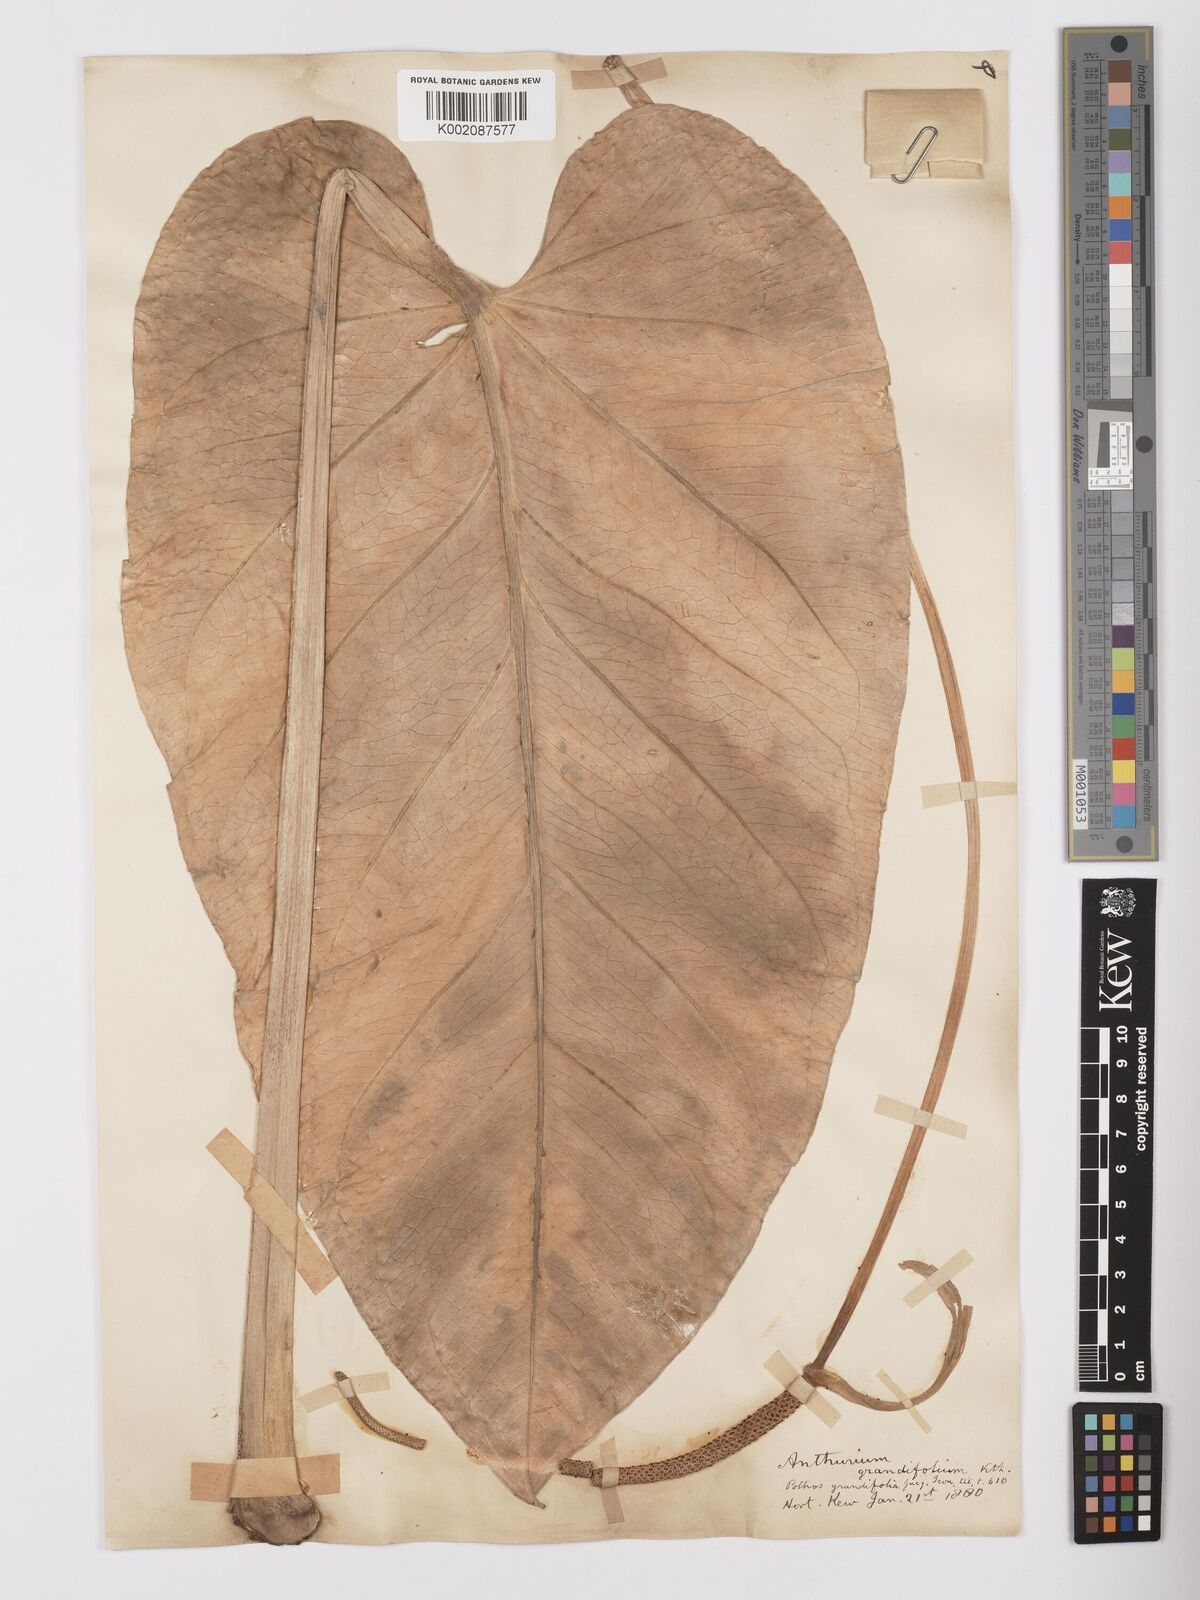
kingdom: Plantae
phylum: Tracheophyta
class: Liliopsida
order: Alismatales
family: Araceae
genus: Anthurium
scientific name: Anthurium grandifolium
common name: Monkey tail
